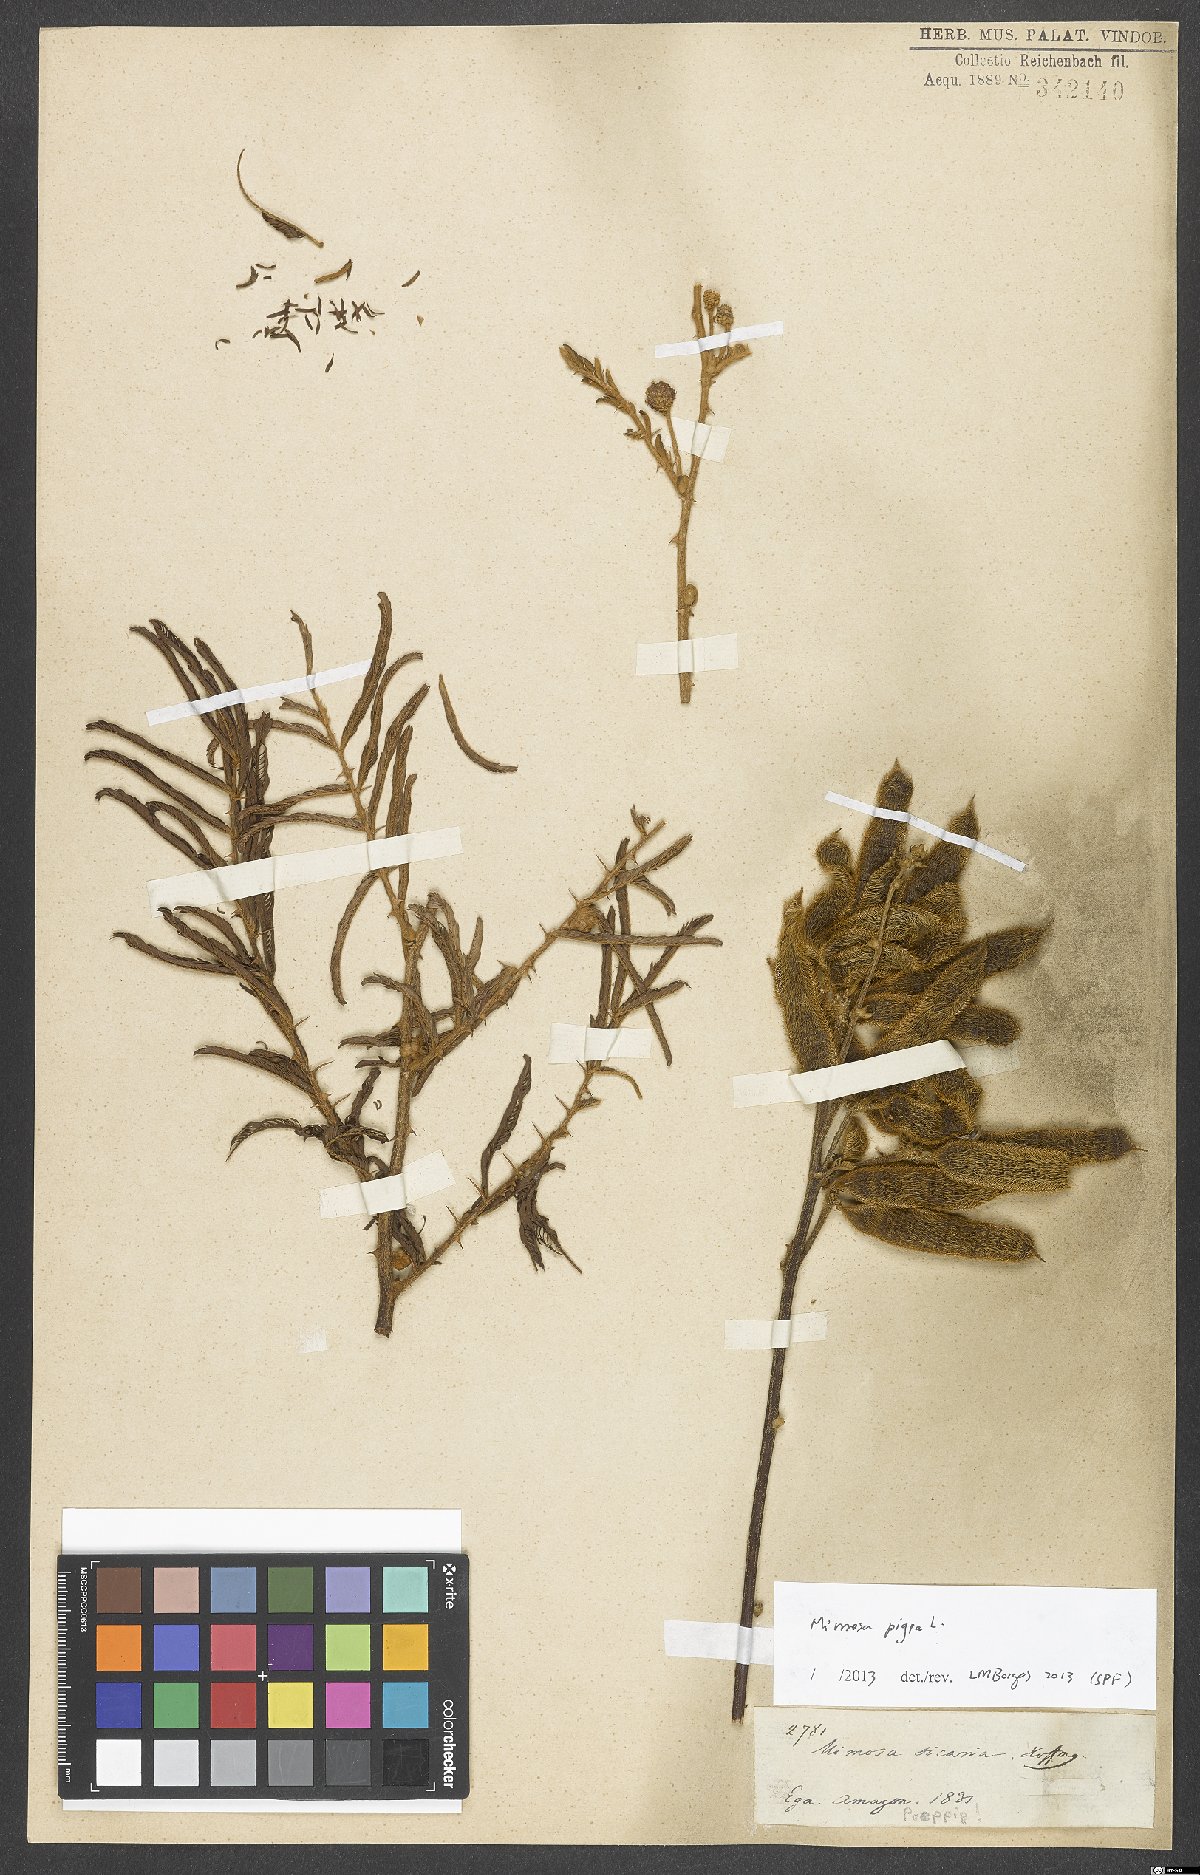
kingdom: Plantae
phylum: Tracheophyta
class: Magnoliopsida
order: Fabales
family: Fabaceae
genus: Mimosa
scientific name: Mimosa pigra
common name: Black mimosa
